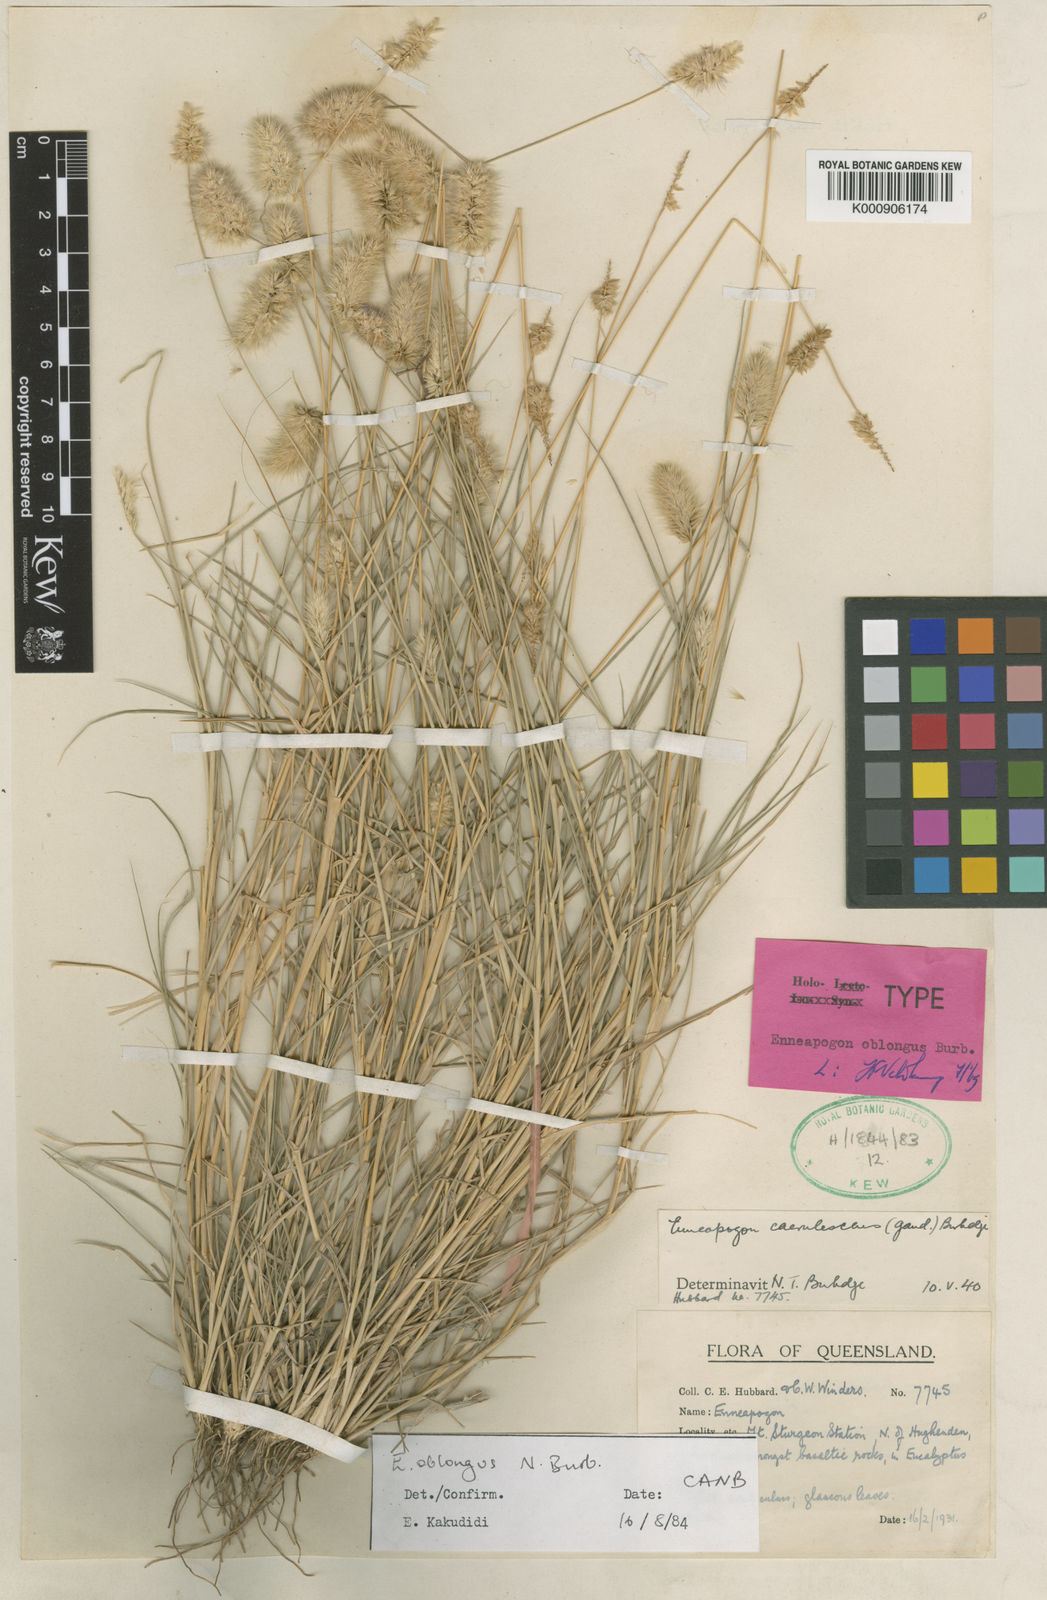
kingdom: Plantae
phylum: Tracheophyta
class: Liliopsida
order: Poales
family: Poaceae
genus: Enneapogon
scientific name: Enneapogon lindleyanus
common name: Conetop nineawn
